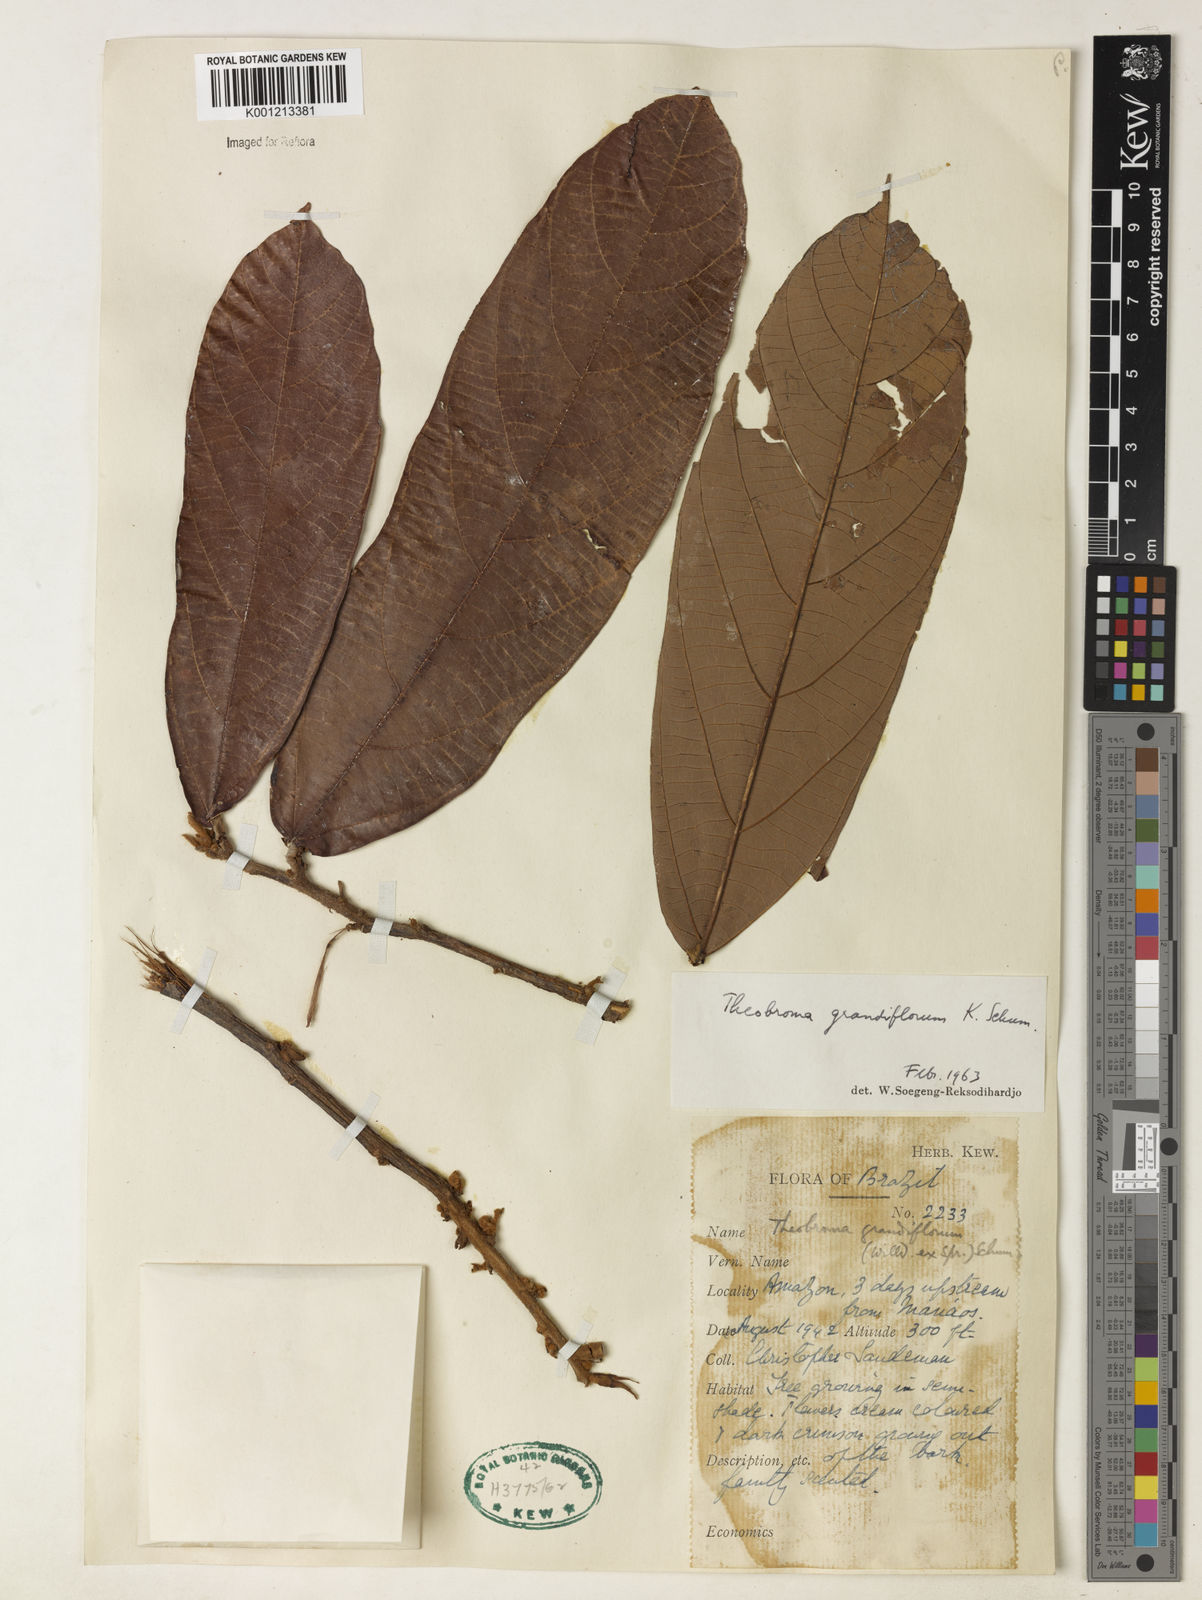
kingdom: Plantae
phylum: Tracheophyta
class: Magnoliopsida
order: Malvales
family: Malvaceae
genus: Theobroma
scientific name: Theobroma grandiflorum
